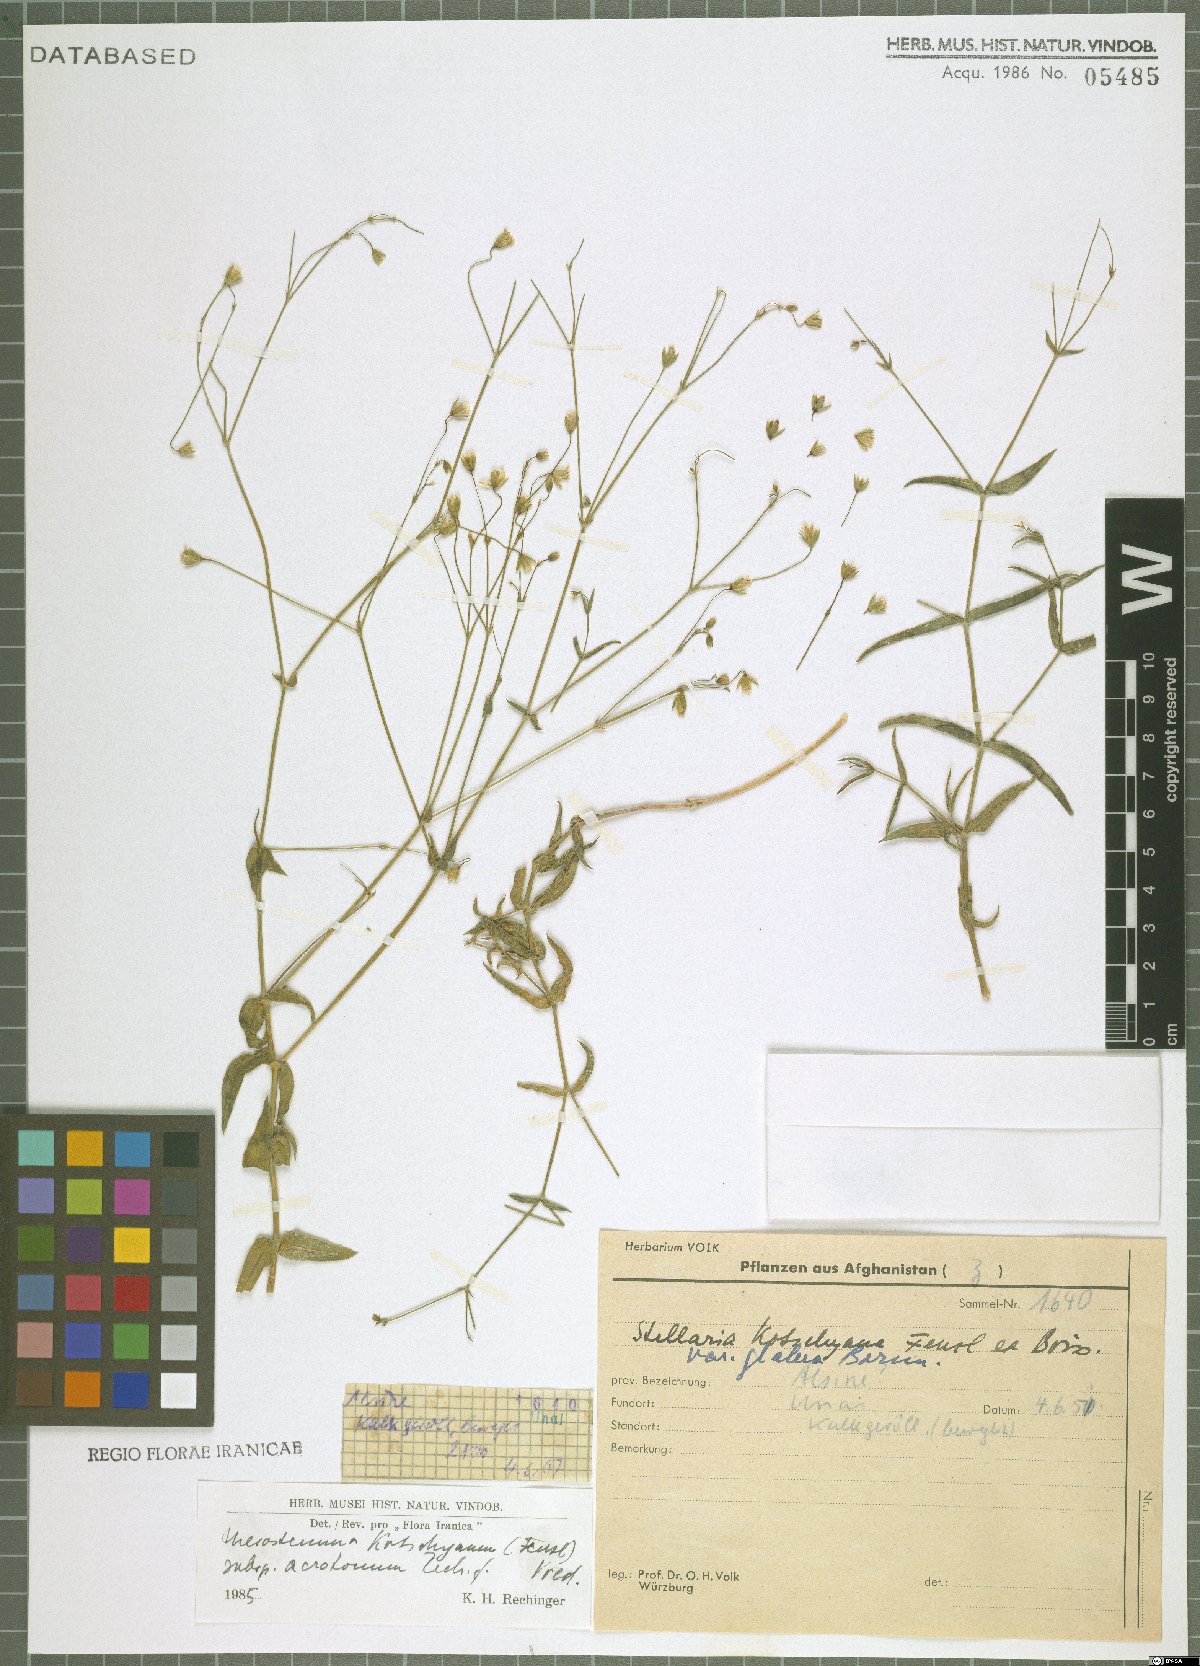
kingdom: Plantae
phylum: Tracheophyta
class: Magnoliopsida
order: Caryophyllales
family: Caryophyllaceae
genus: Mesostemma
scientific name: Mesostemma kotschyanum
